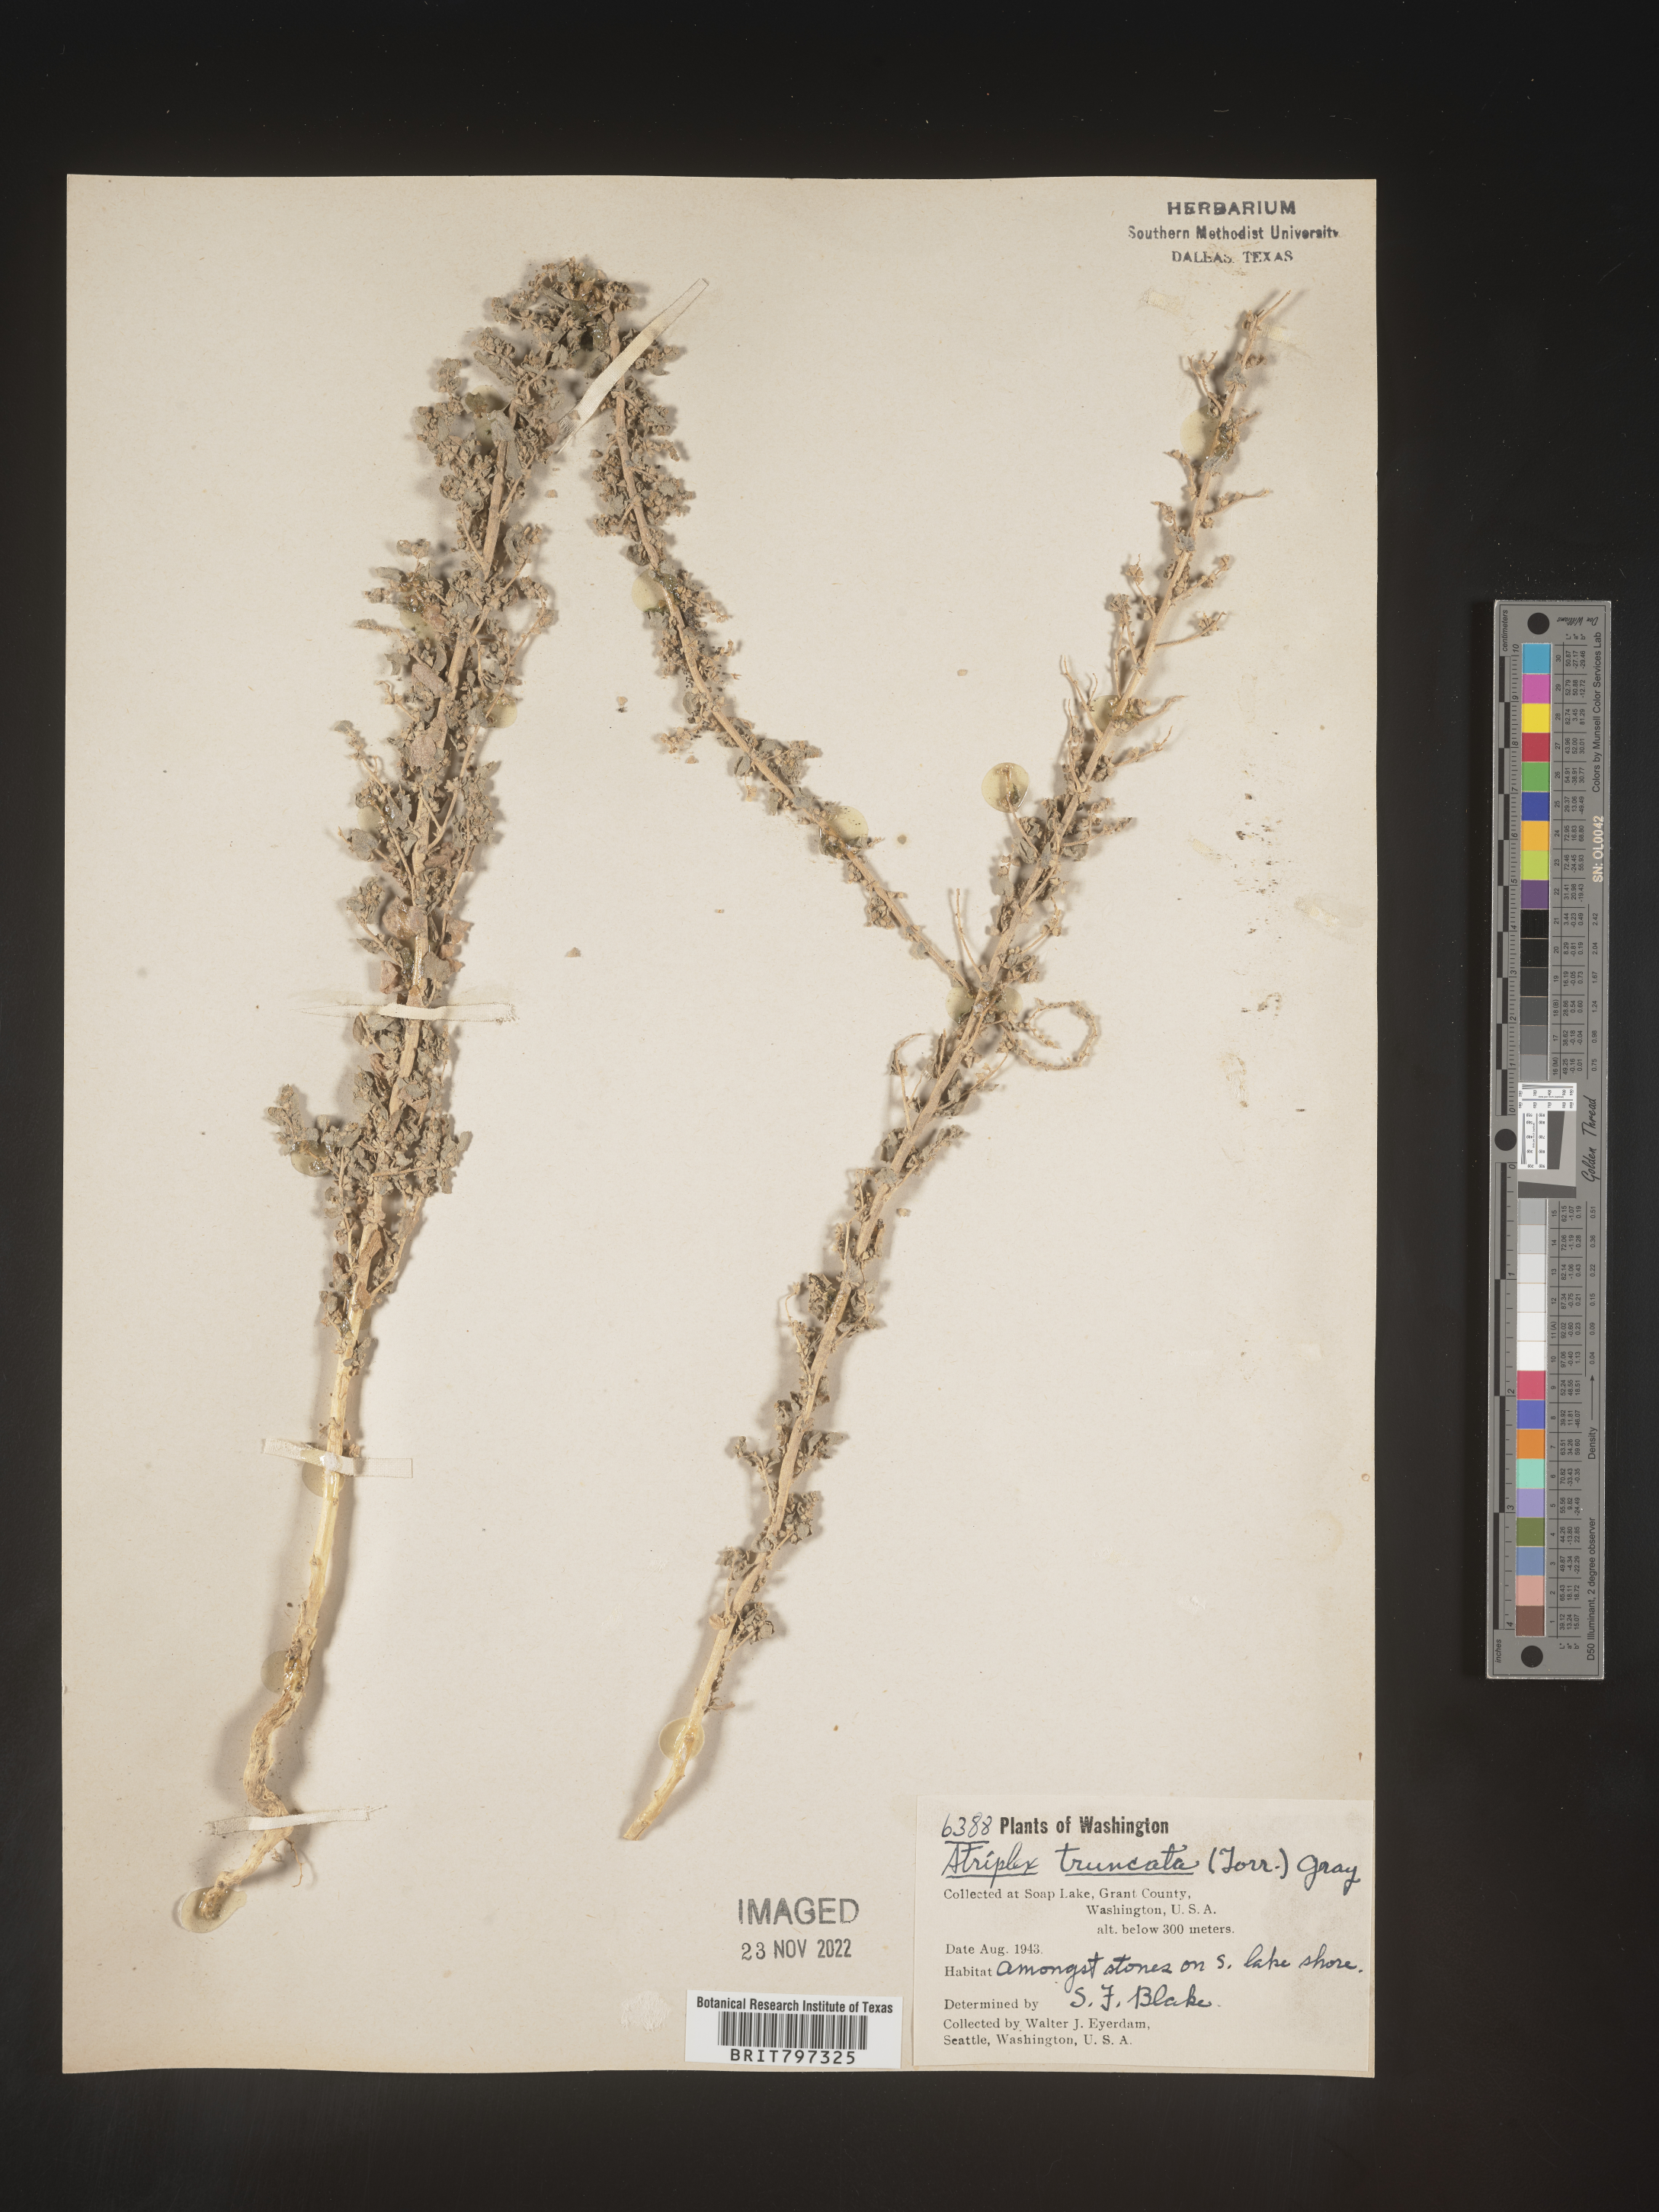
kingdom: Plantae
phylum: Tracheophyta
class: Magnoliopsida
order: Caryophyllales
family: Amaranthaceae
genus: Atriplex
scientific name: Atriplex
